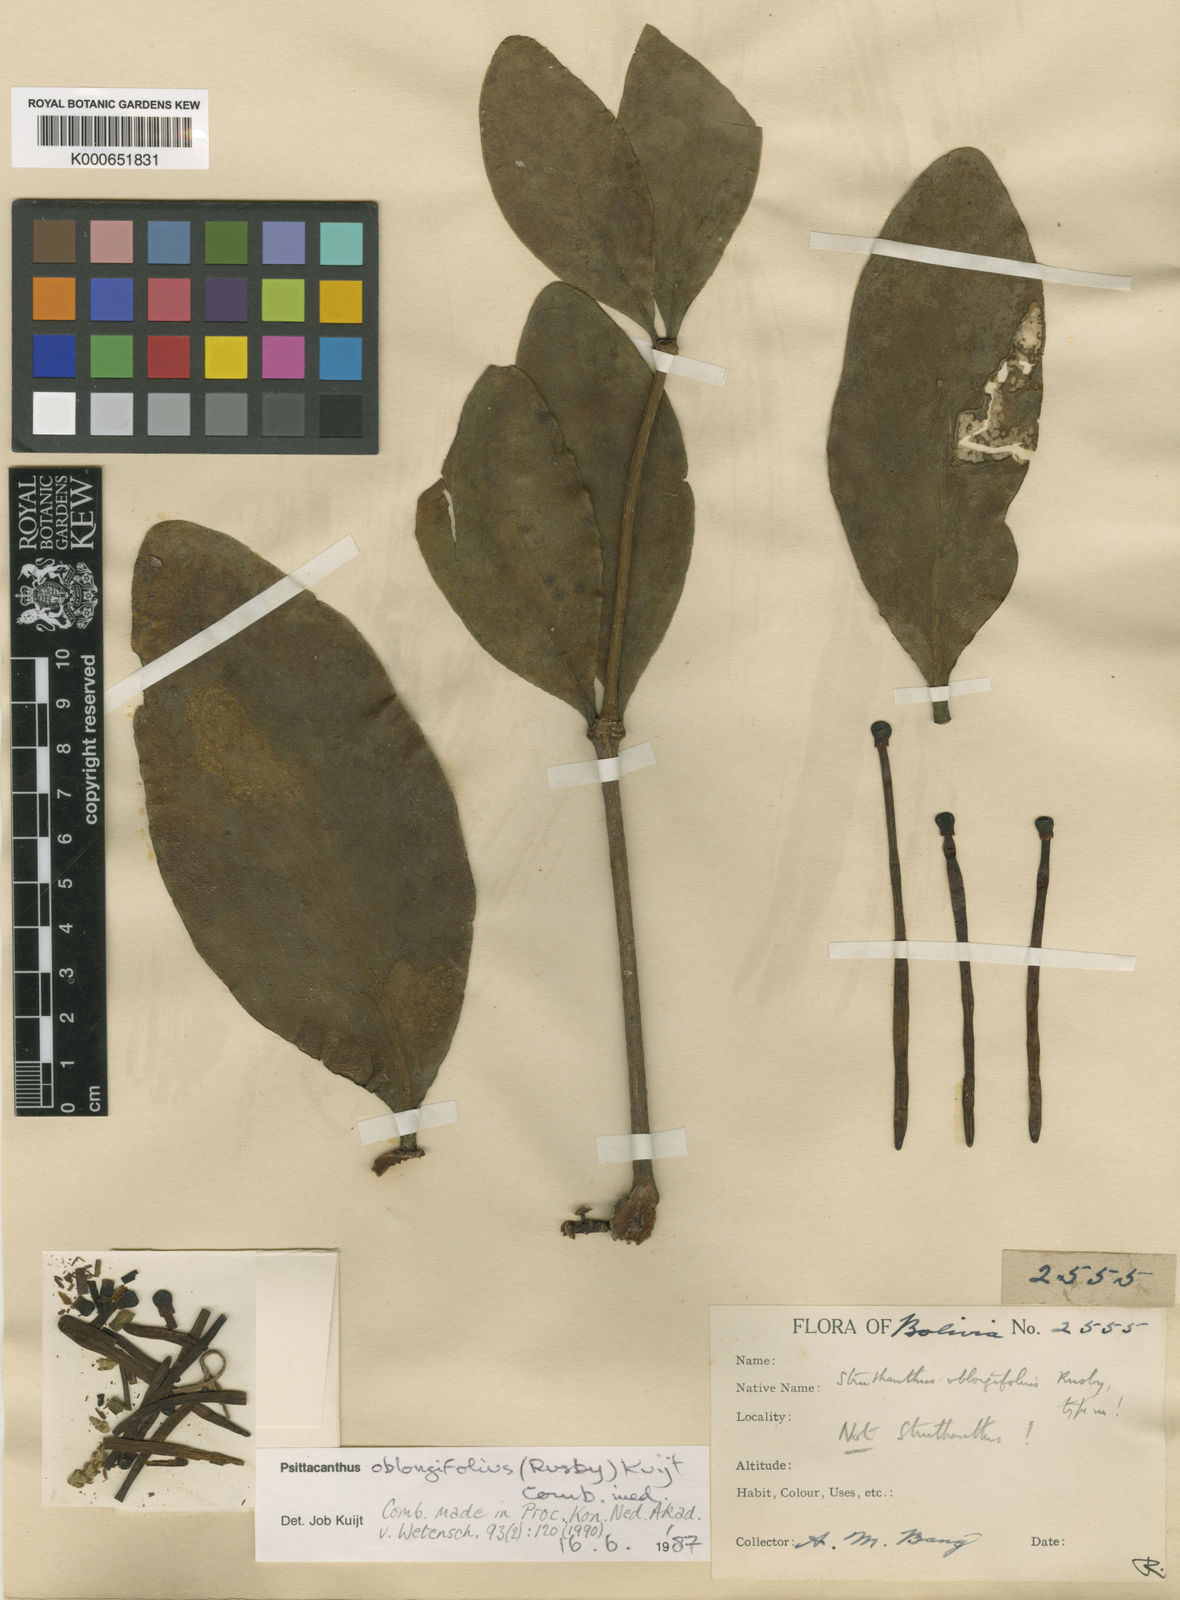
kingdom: Plantae
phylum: Tracheophyta
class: Magnoliopsida
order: Santalales
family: Loranthaceae
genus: Psittacanthus
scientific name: Psittacanthus oblongifolius
